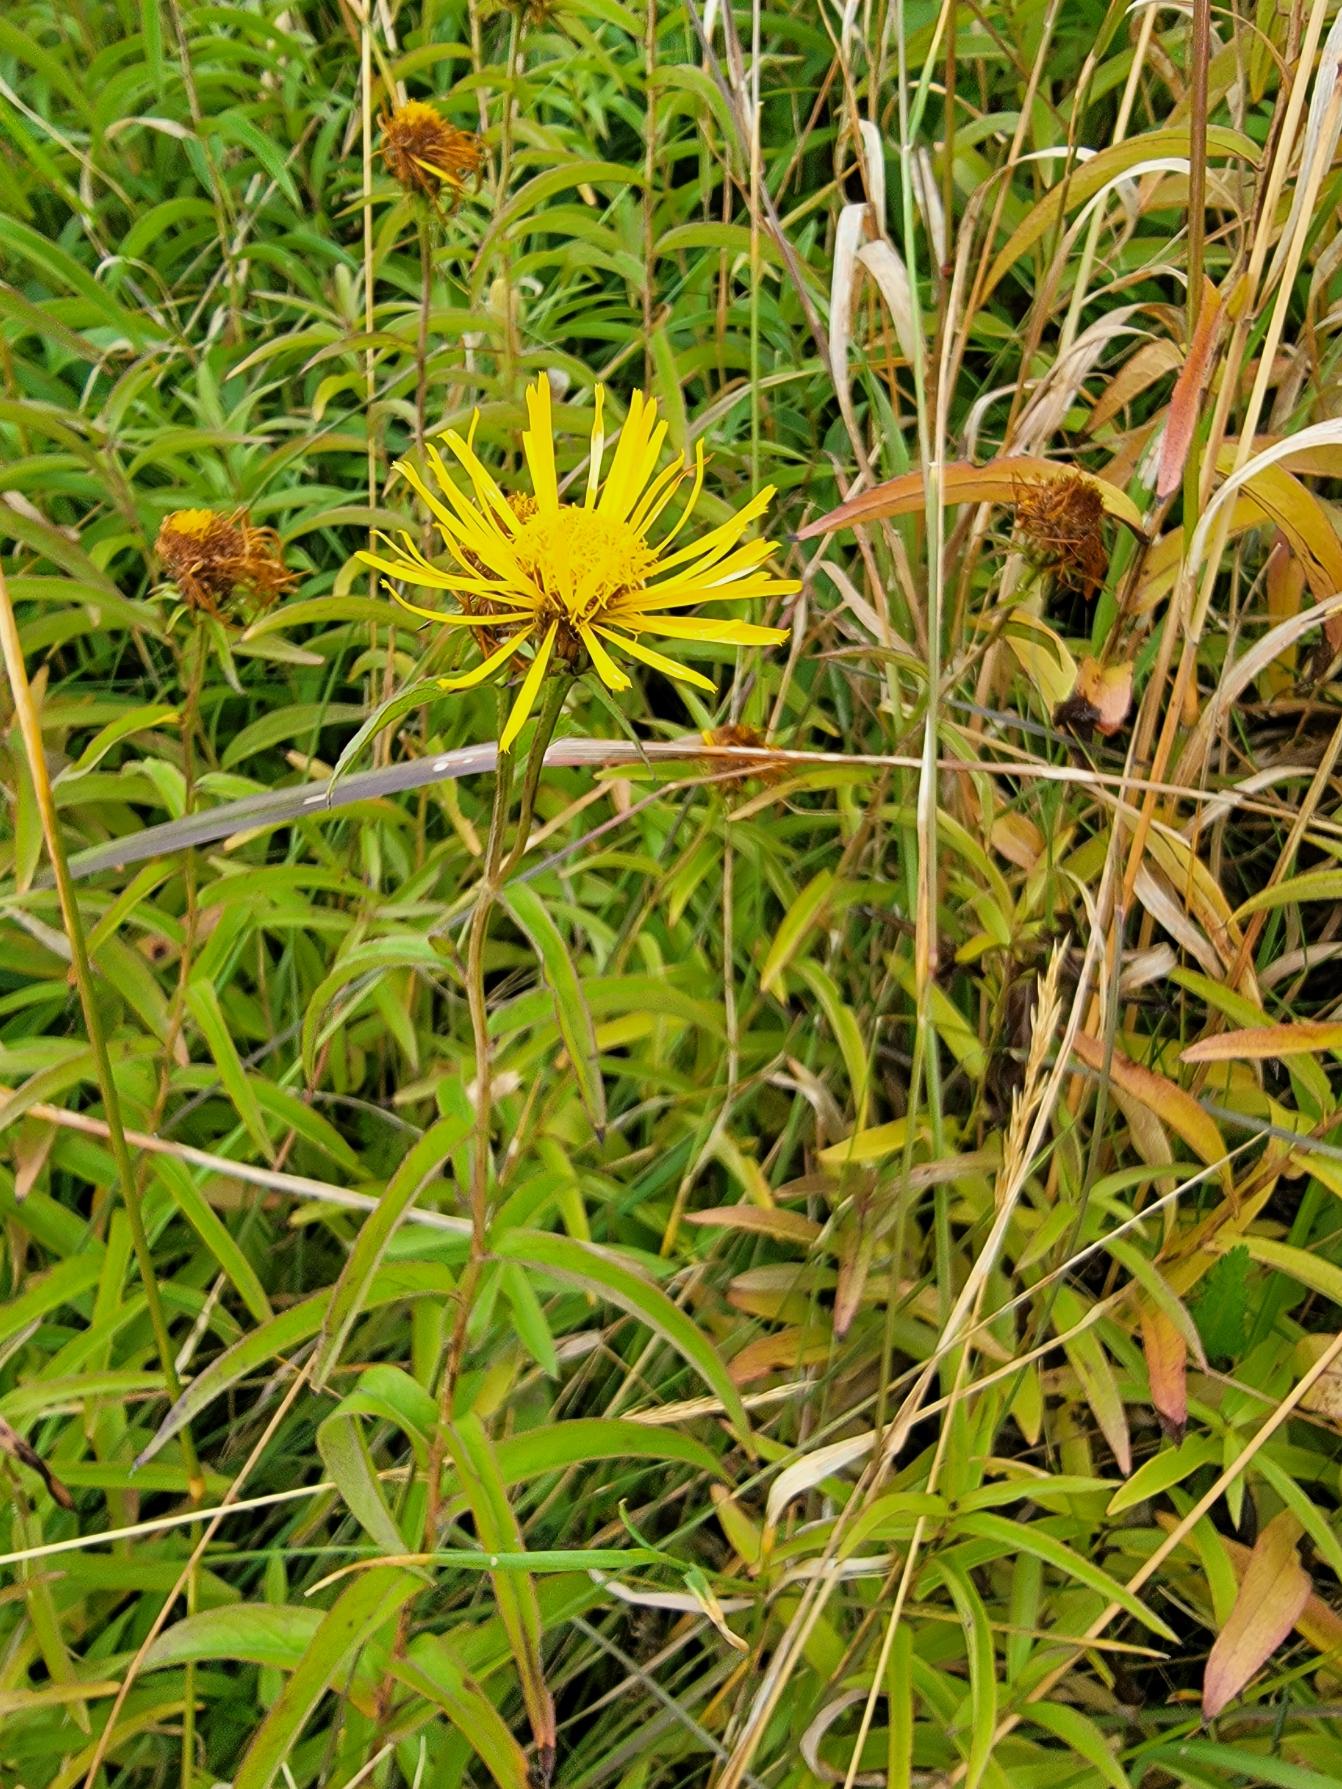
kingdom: Plantae
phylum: Tracheophyta
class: Magnoliopsida
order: Asterales
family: Asteraceae
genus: Pentanema
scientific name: Pentanema salicinum
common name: Pile-alant
